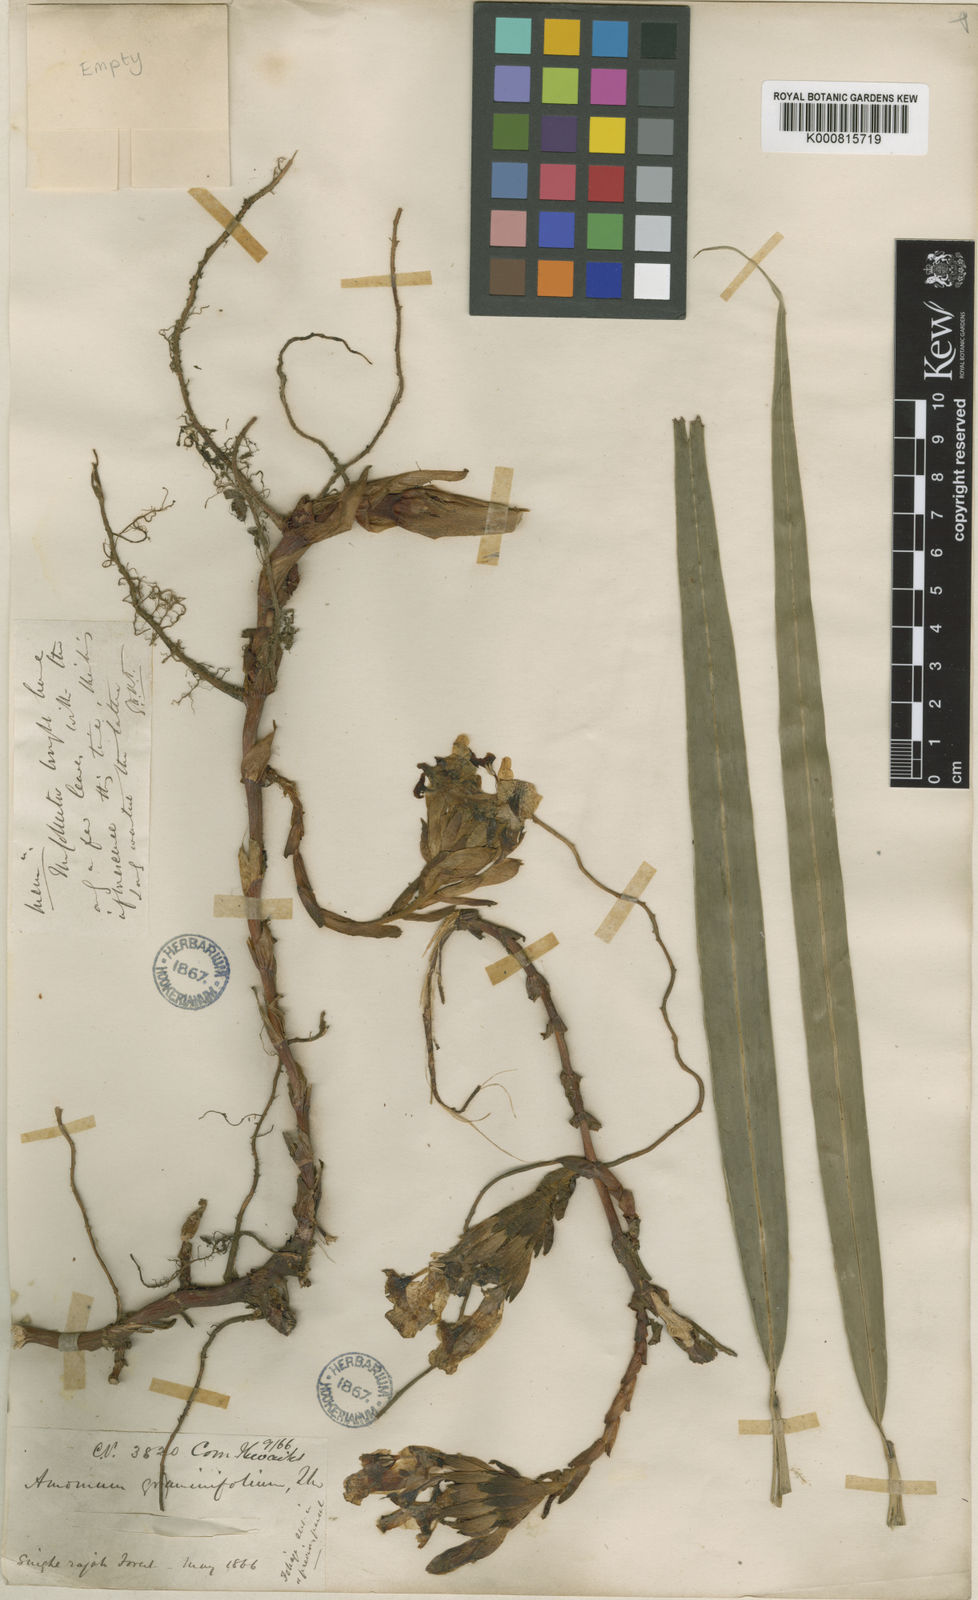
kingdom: Plantae
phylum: Tracheophyta
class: Liliopsida
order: Zingiberales
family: Zingiberaceae
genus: Meistera
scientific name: Meistera graminifolia
